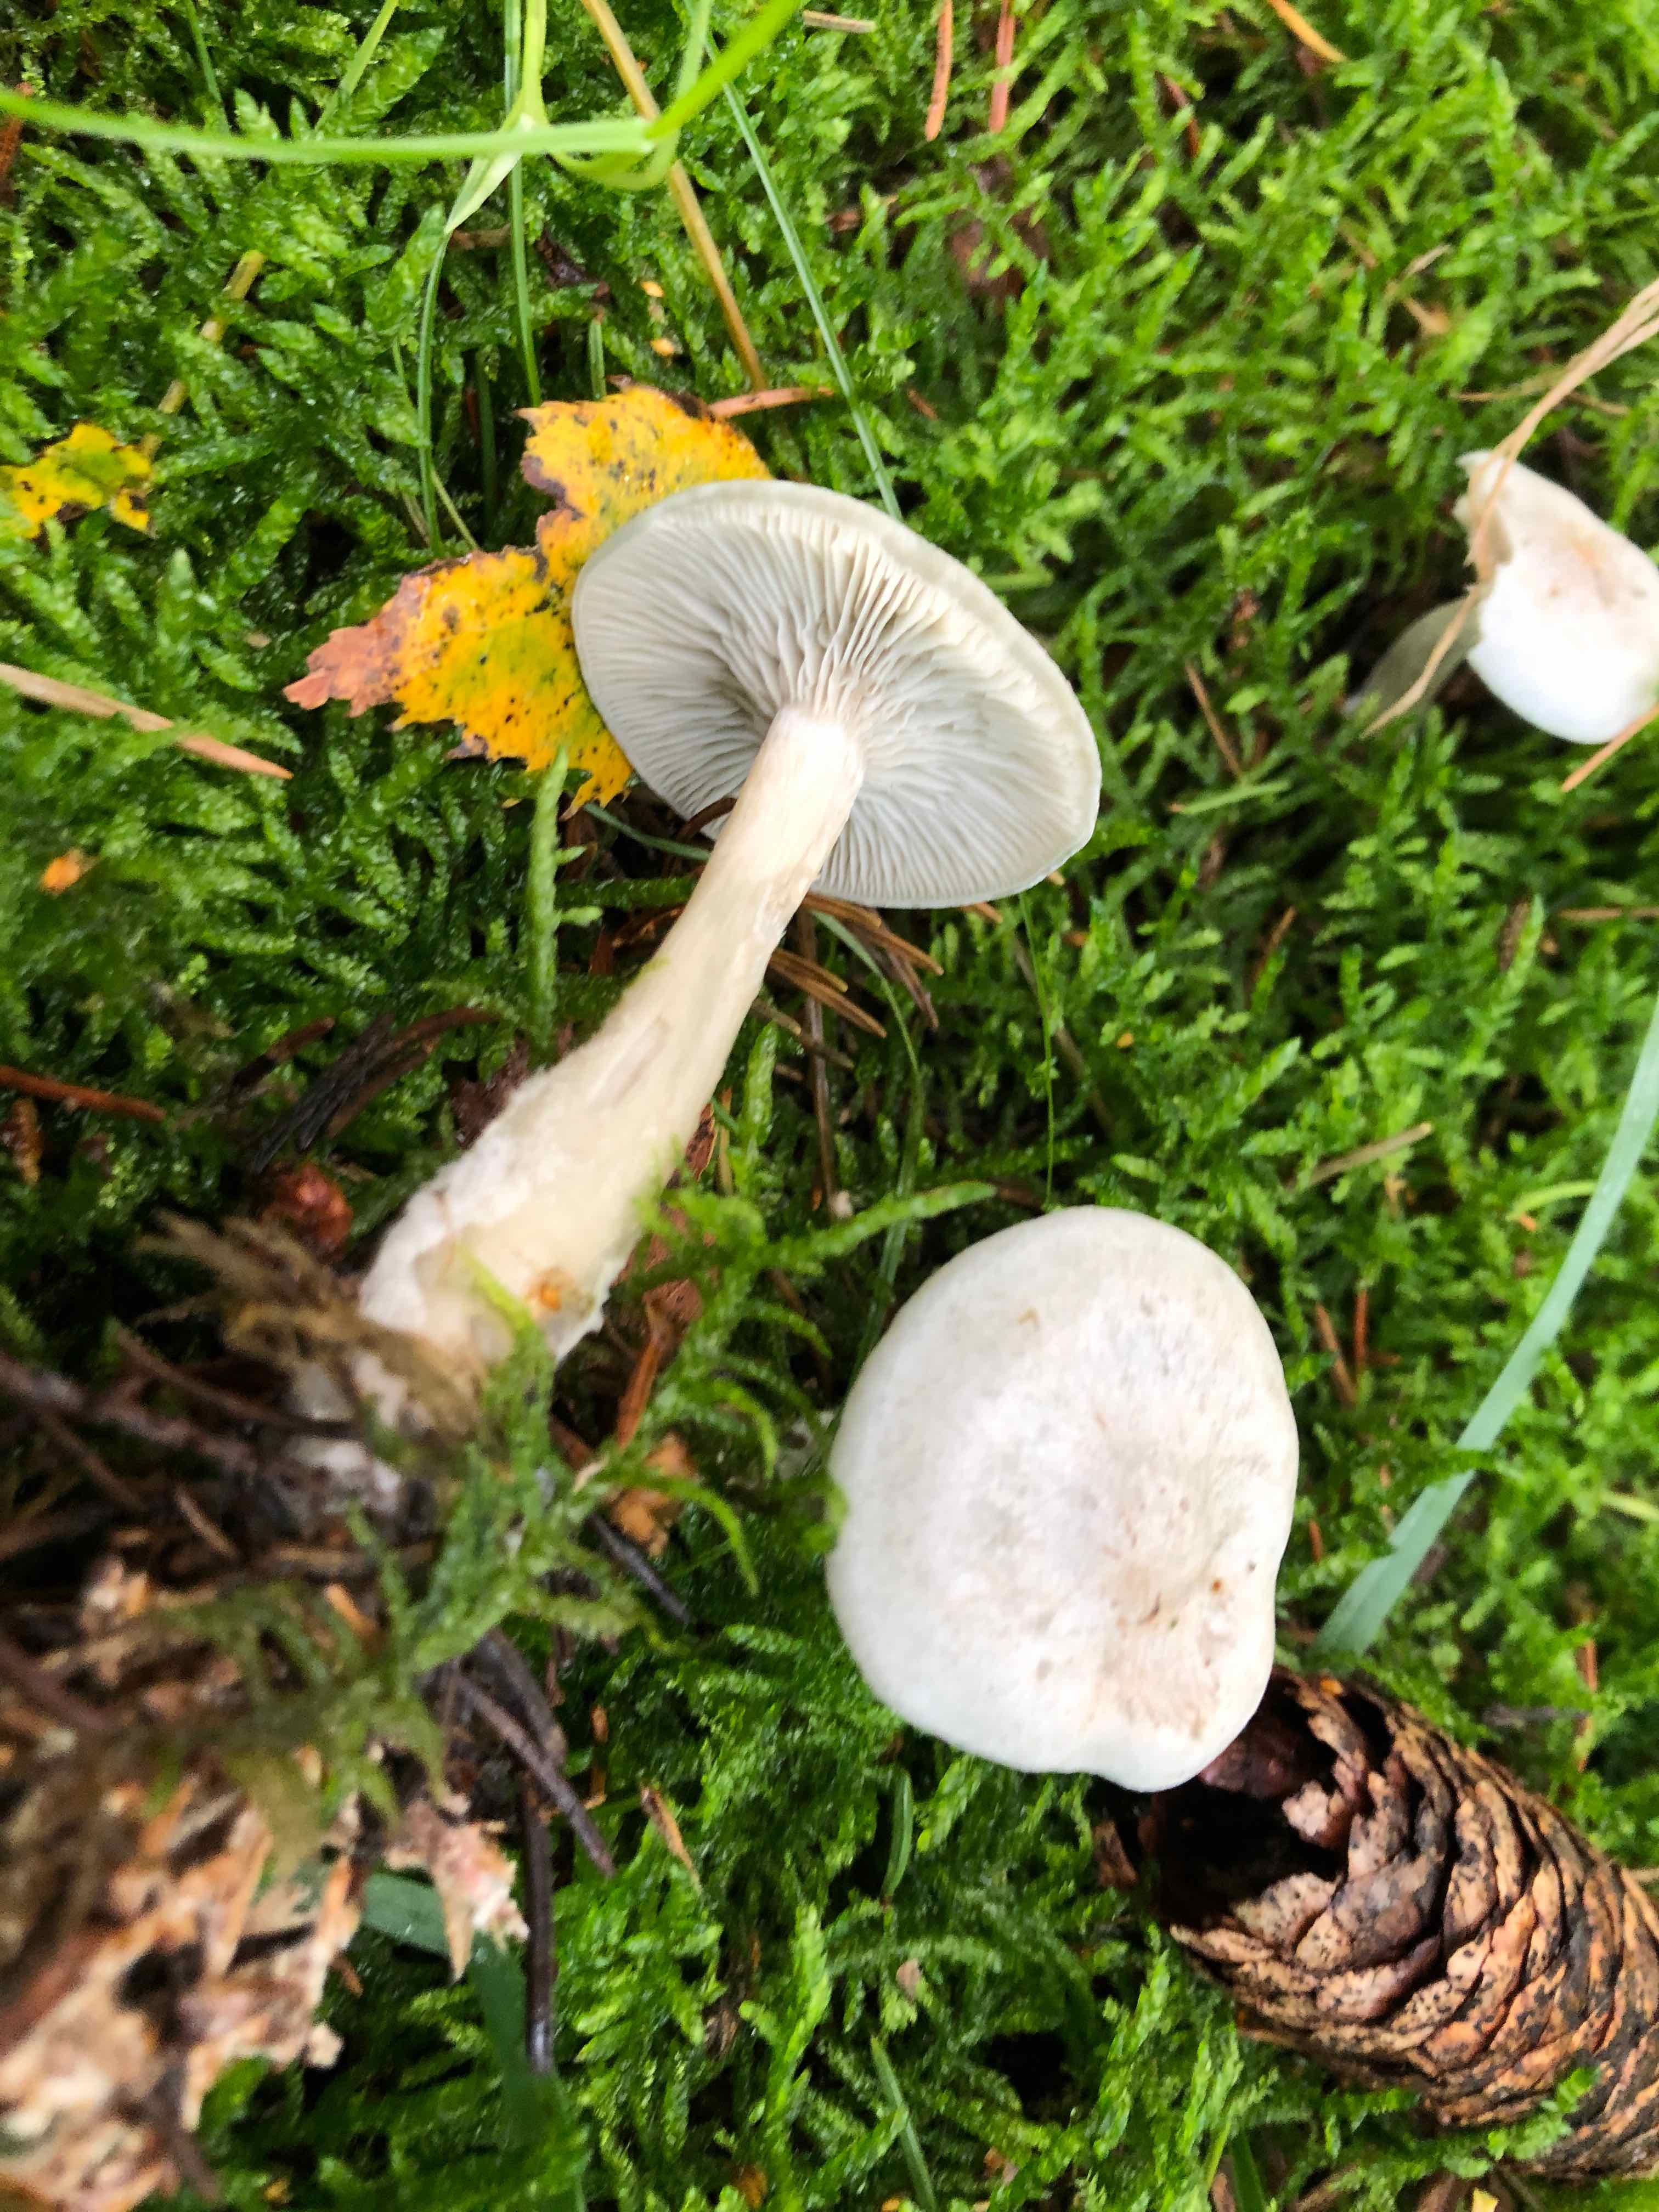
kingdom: Fungi
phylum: Basidiomycota
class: Agaricomycetes
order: Agaricales
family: Tricholomataceae
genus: Clitocybe
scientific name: Clitocybe odora
